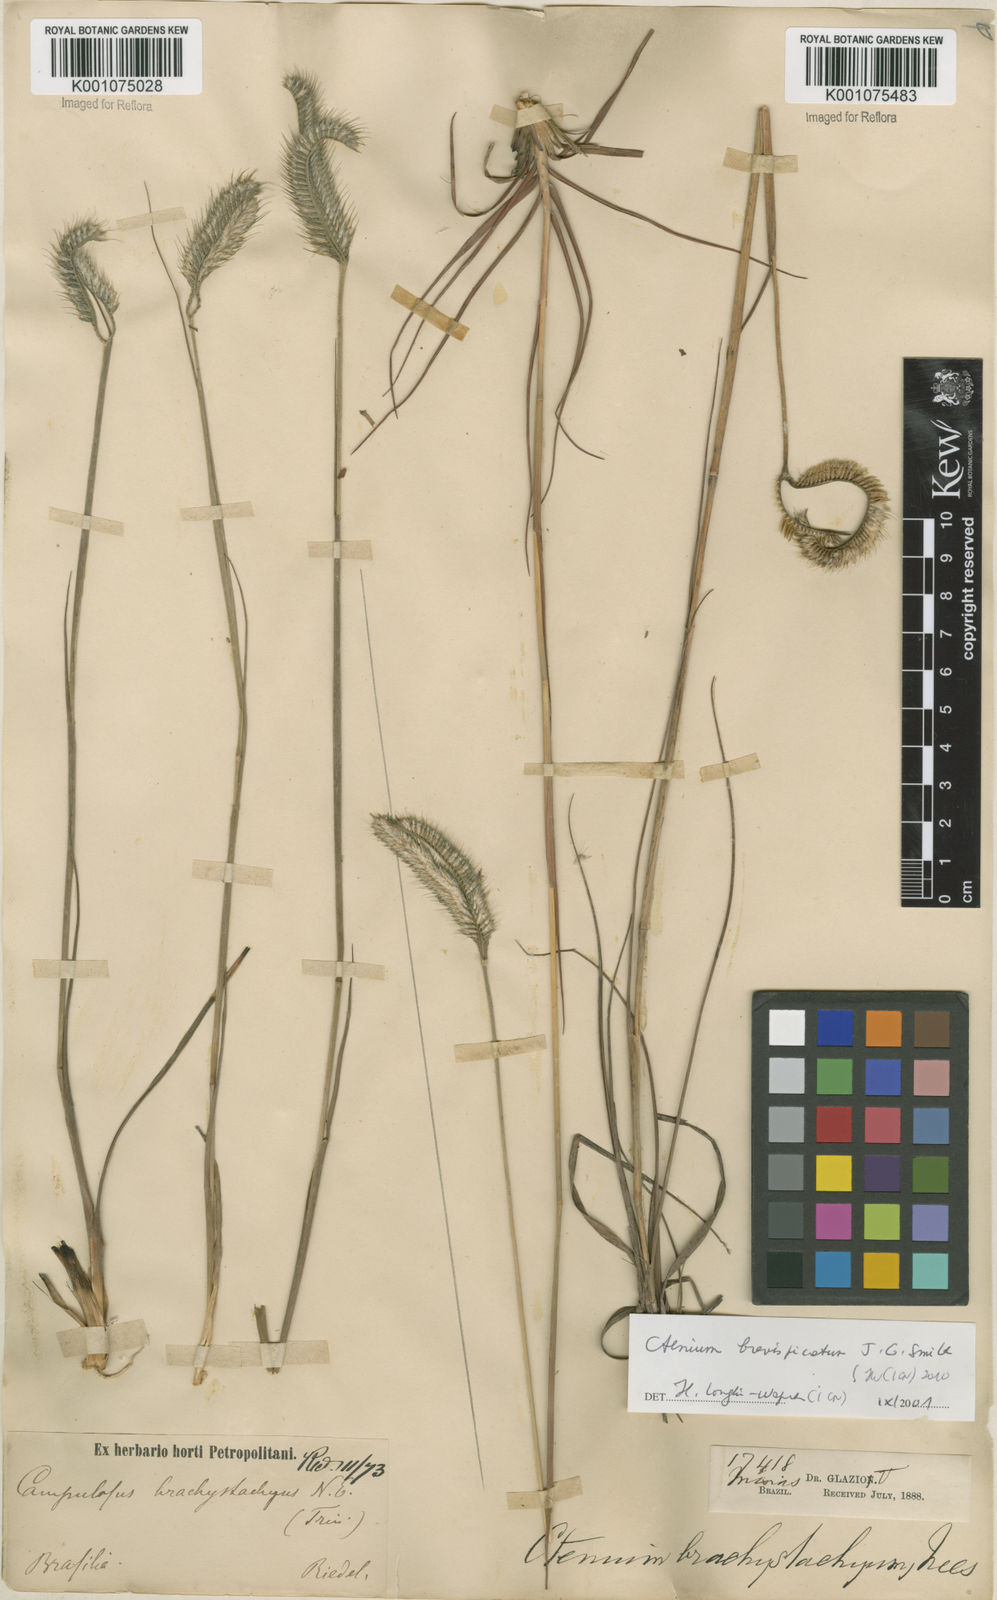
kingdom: Plantae
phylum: Tracheophyta
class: Liliopsida
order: Poales
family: Poaceae
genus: Ctenium
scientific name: Ctenium brevispicatum
